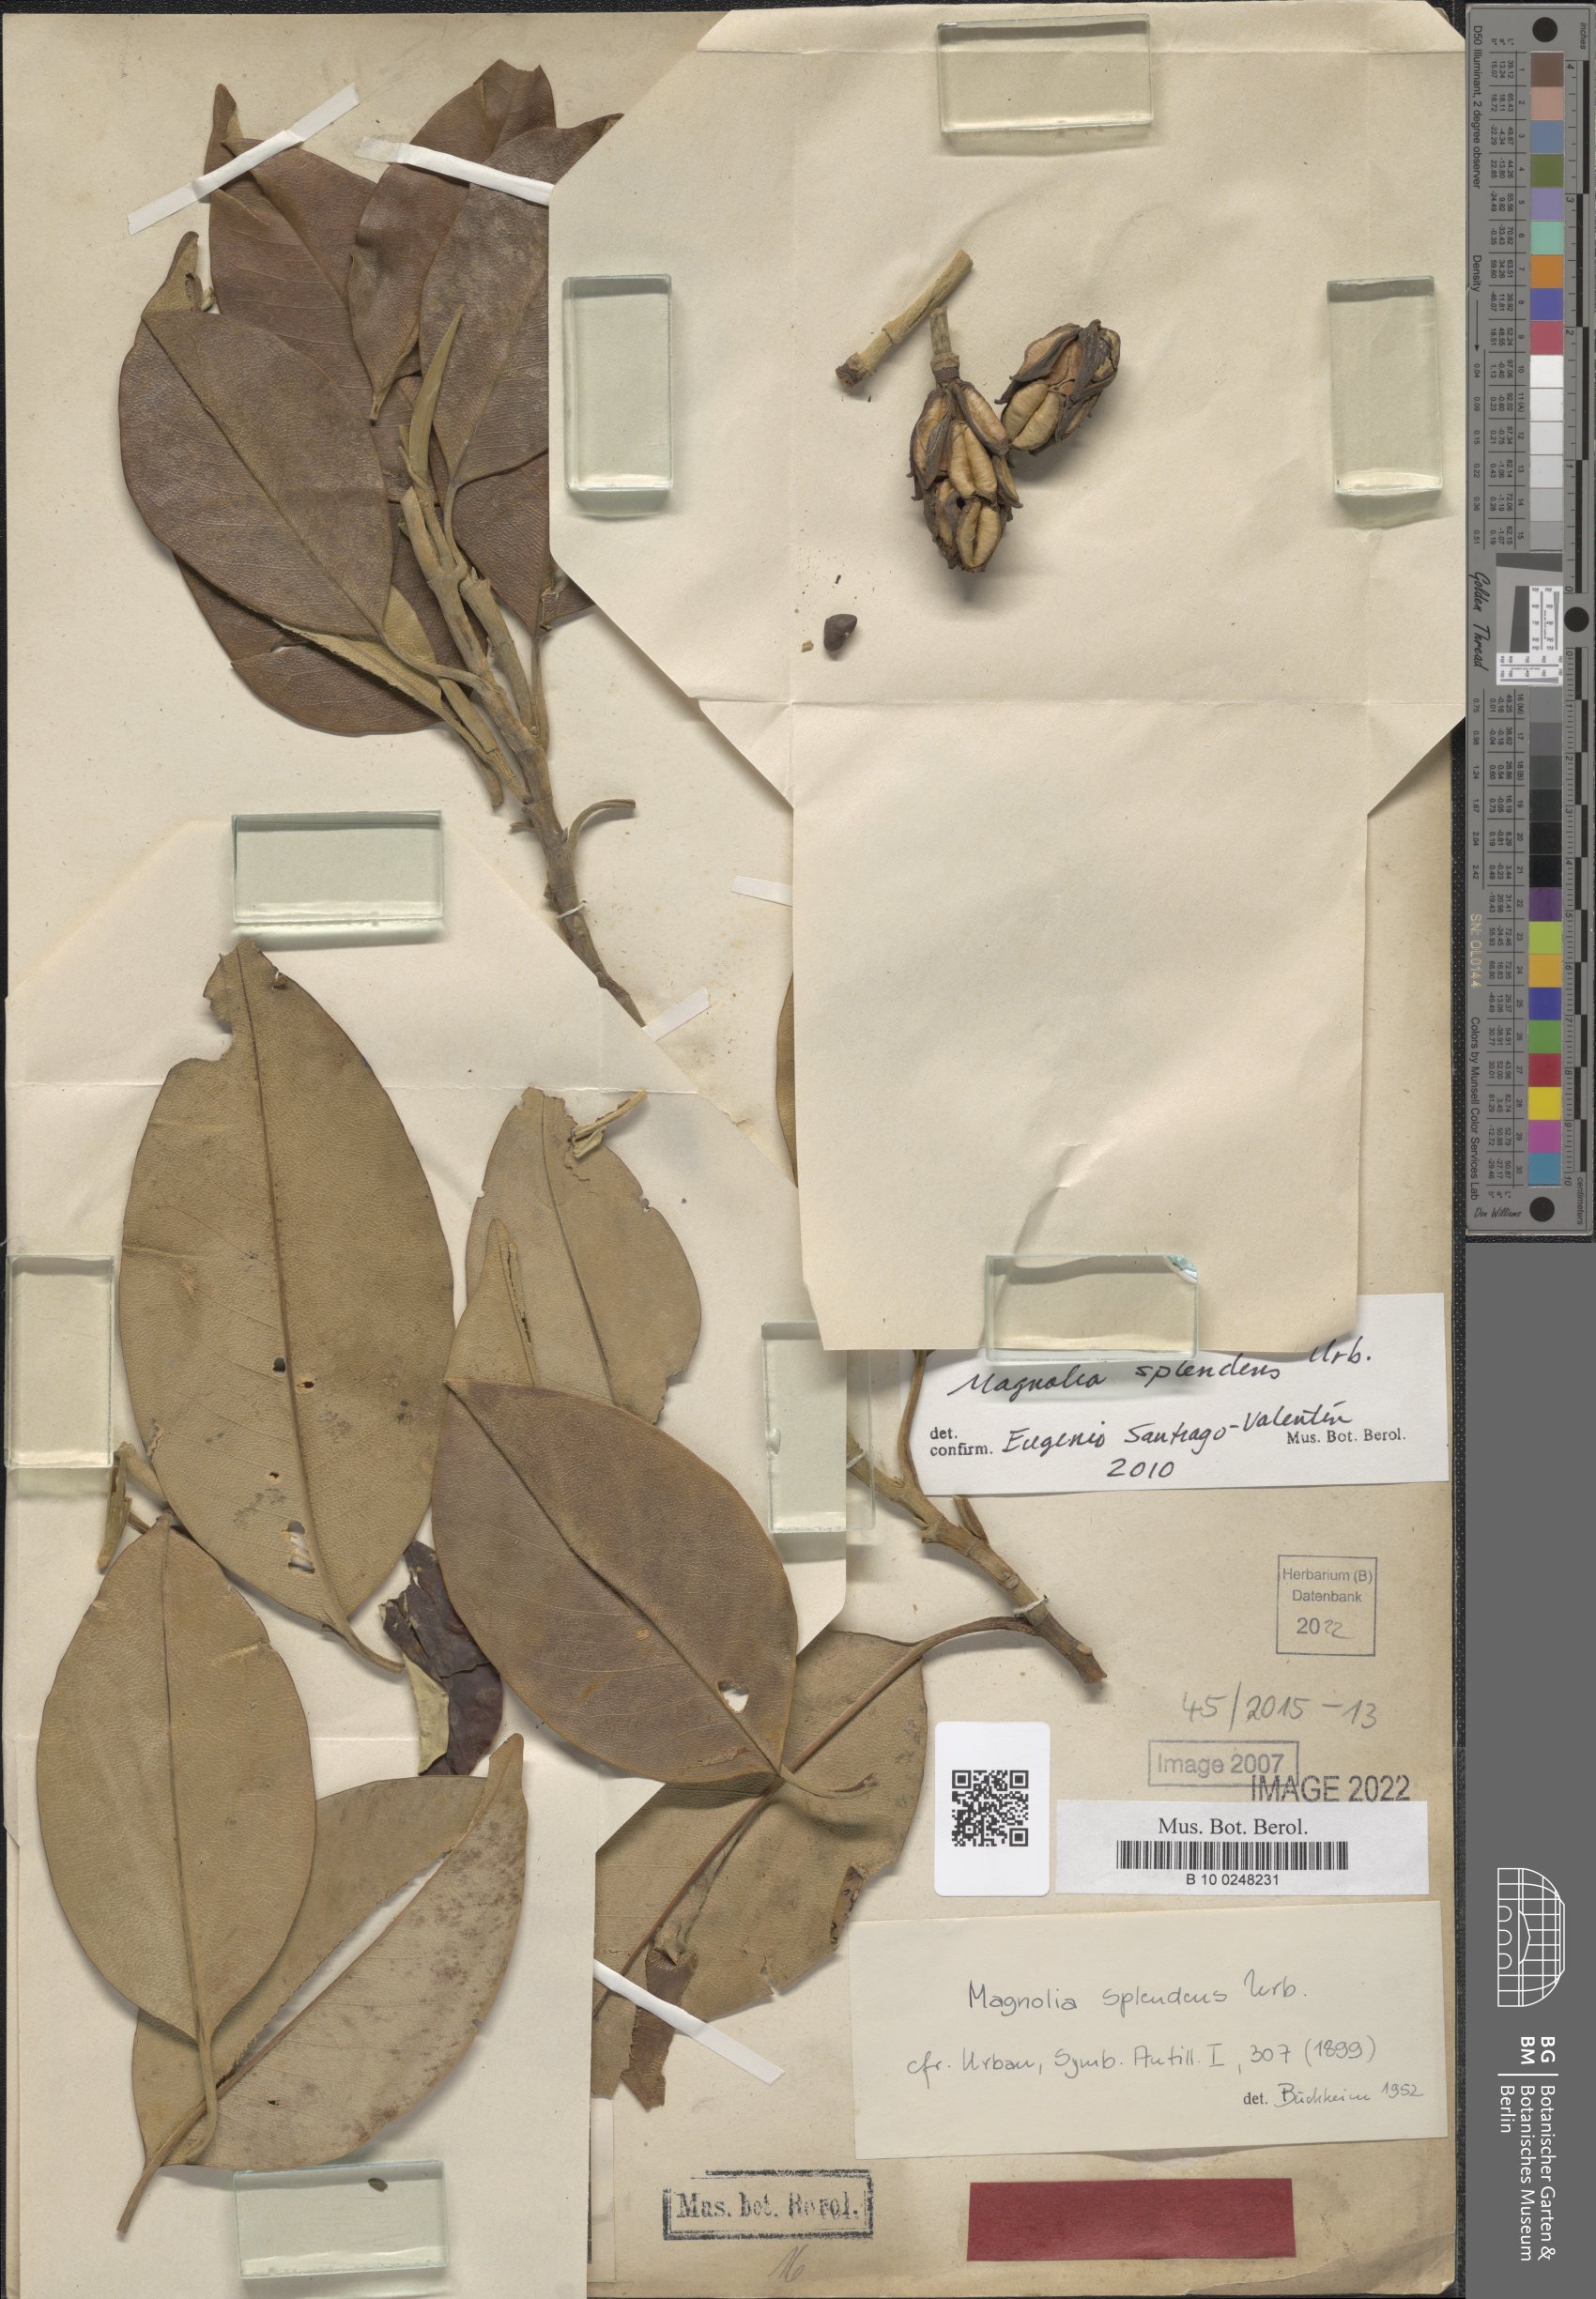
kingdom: Plantae
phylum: Tracheophyta
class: Magnoliopsida
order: Magnoliales
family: Magnoliaceae
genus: Magnolia
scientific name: Magnolia splendens
